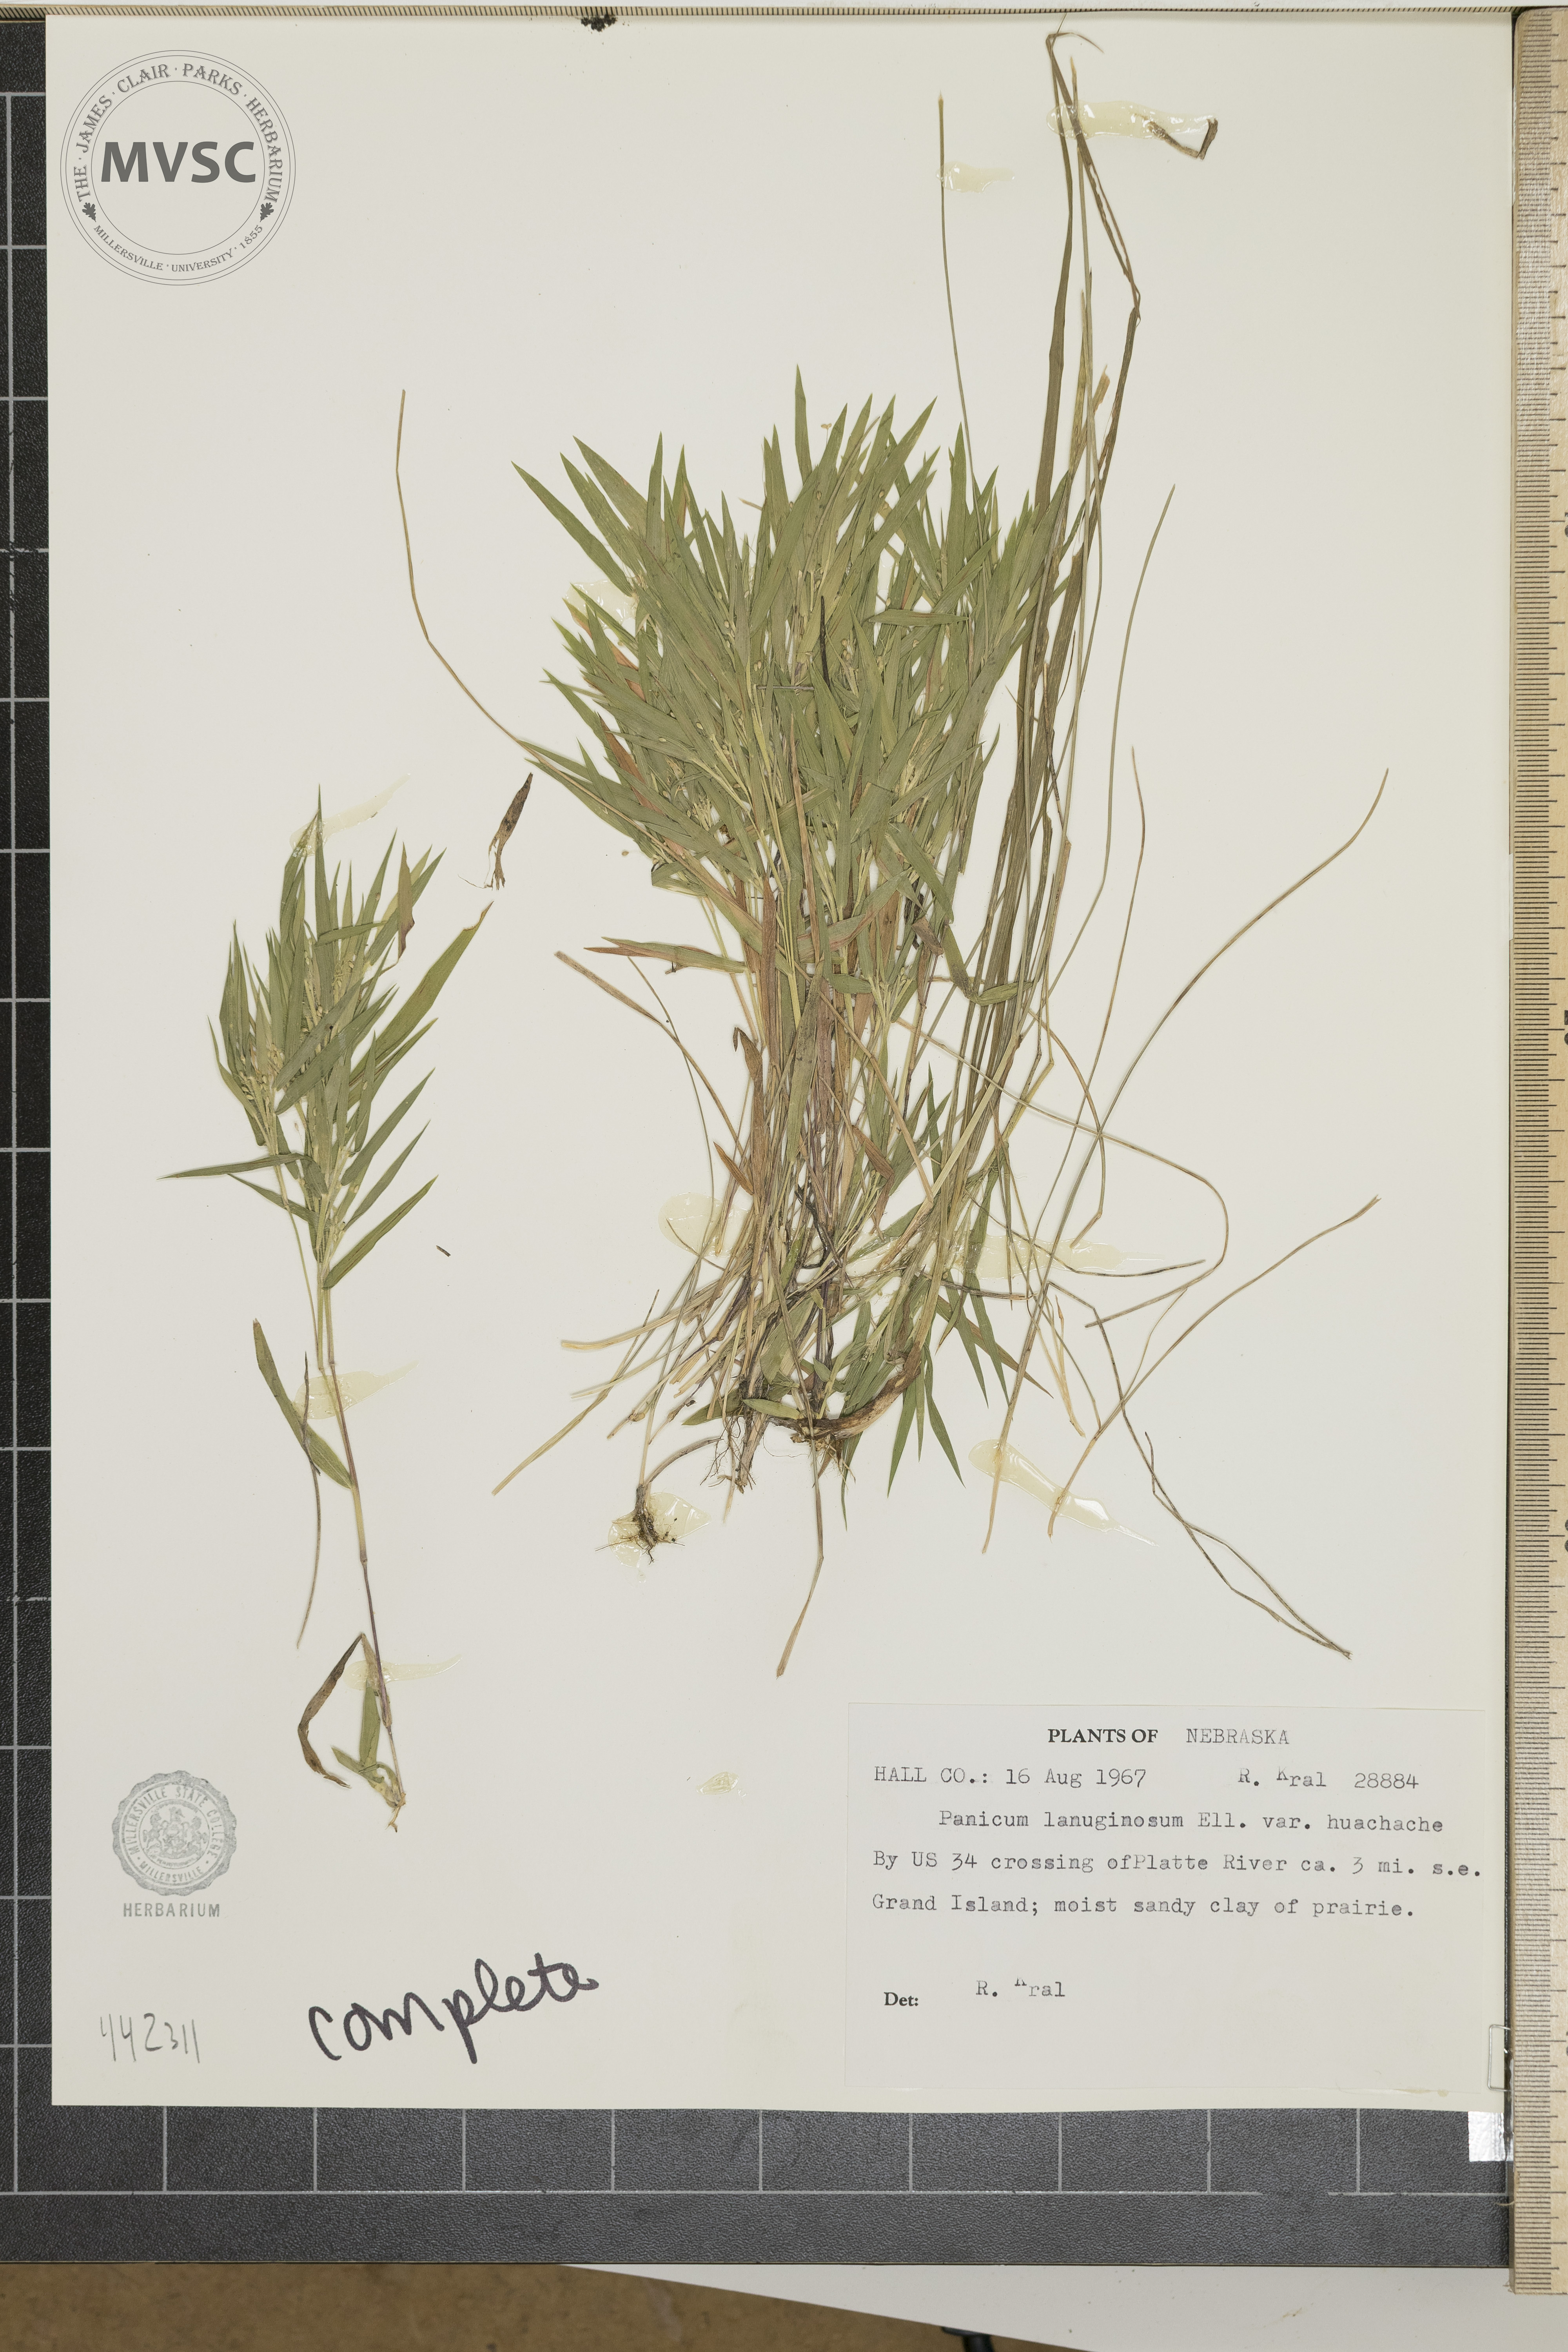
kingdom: Plantae
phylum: Tracheophyta
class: Liliopsida
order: Poales
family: Poaceae
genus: Dichanthelium
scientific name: Dichanthelium
